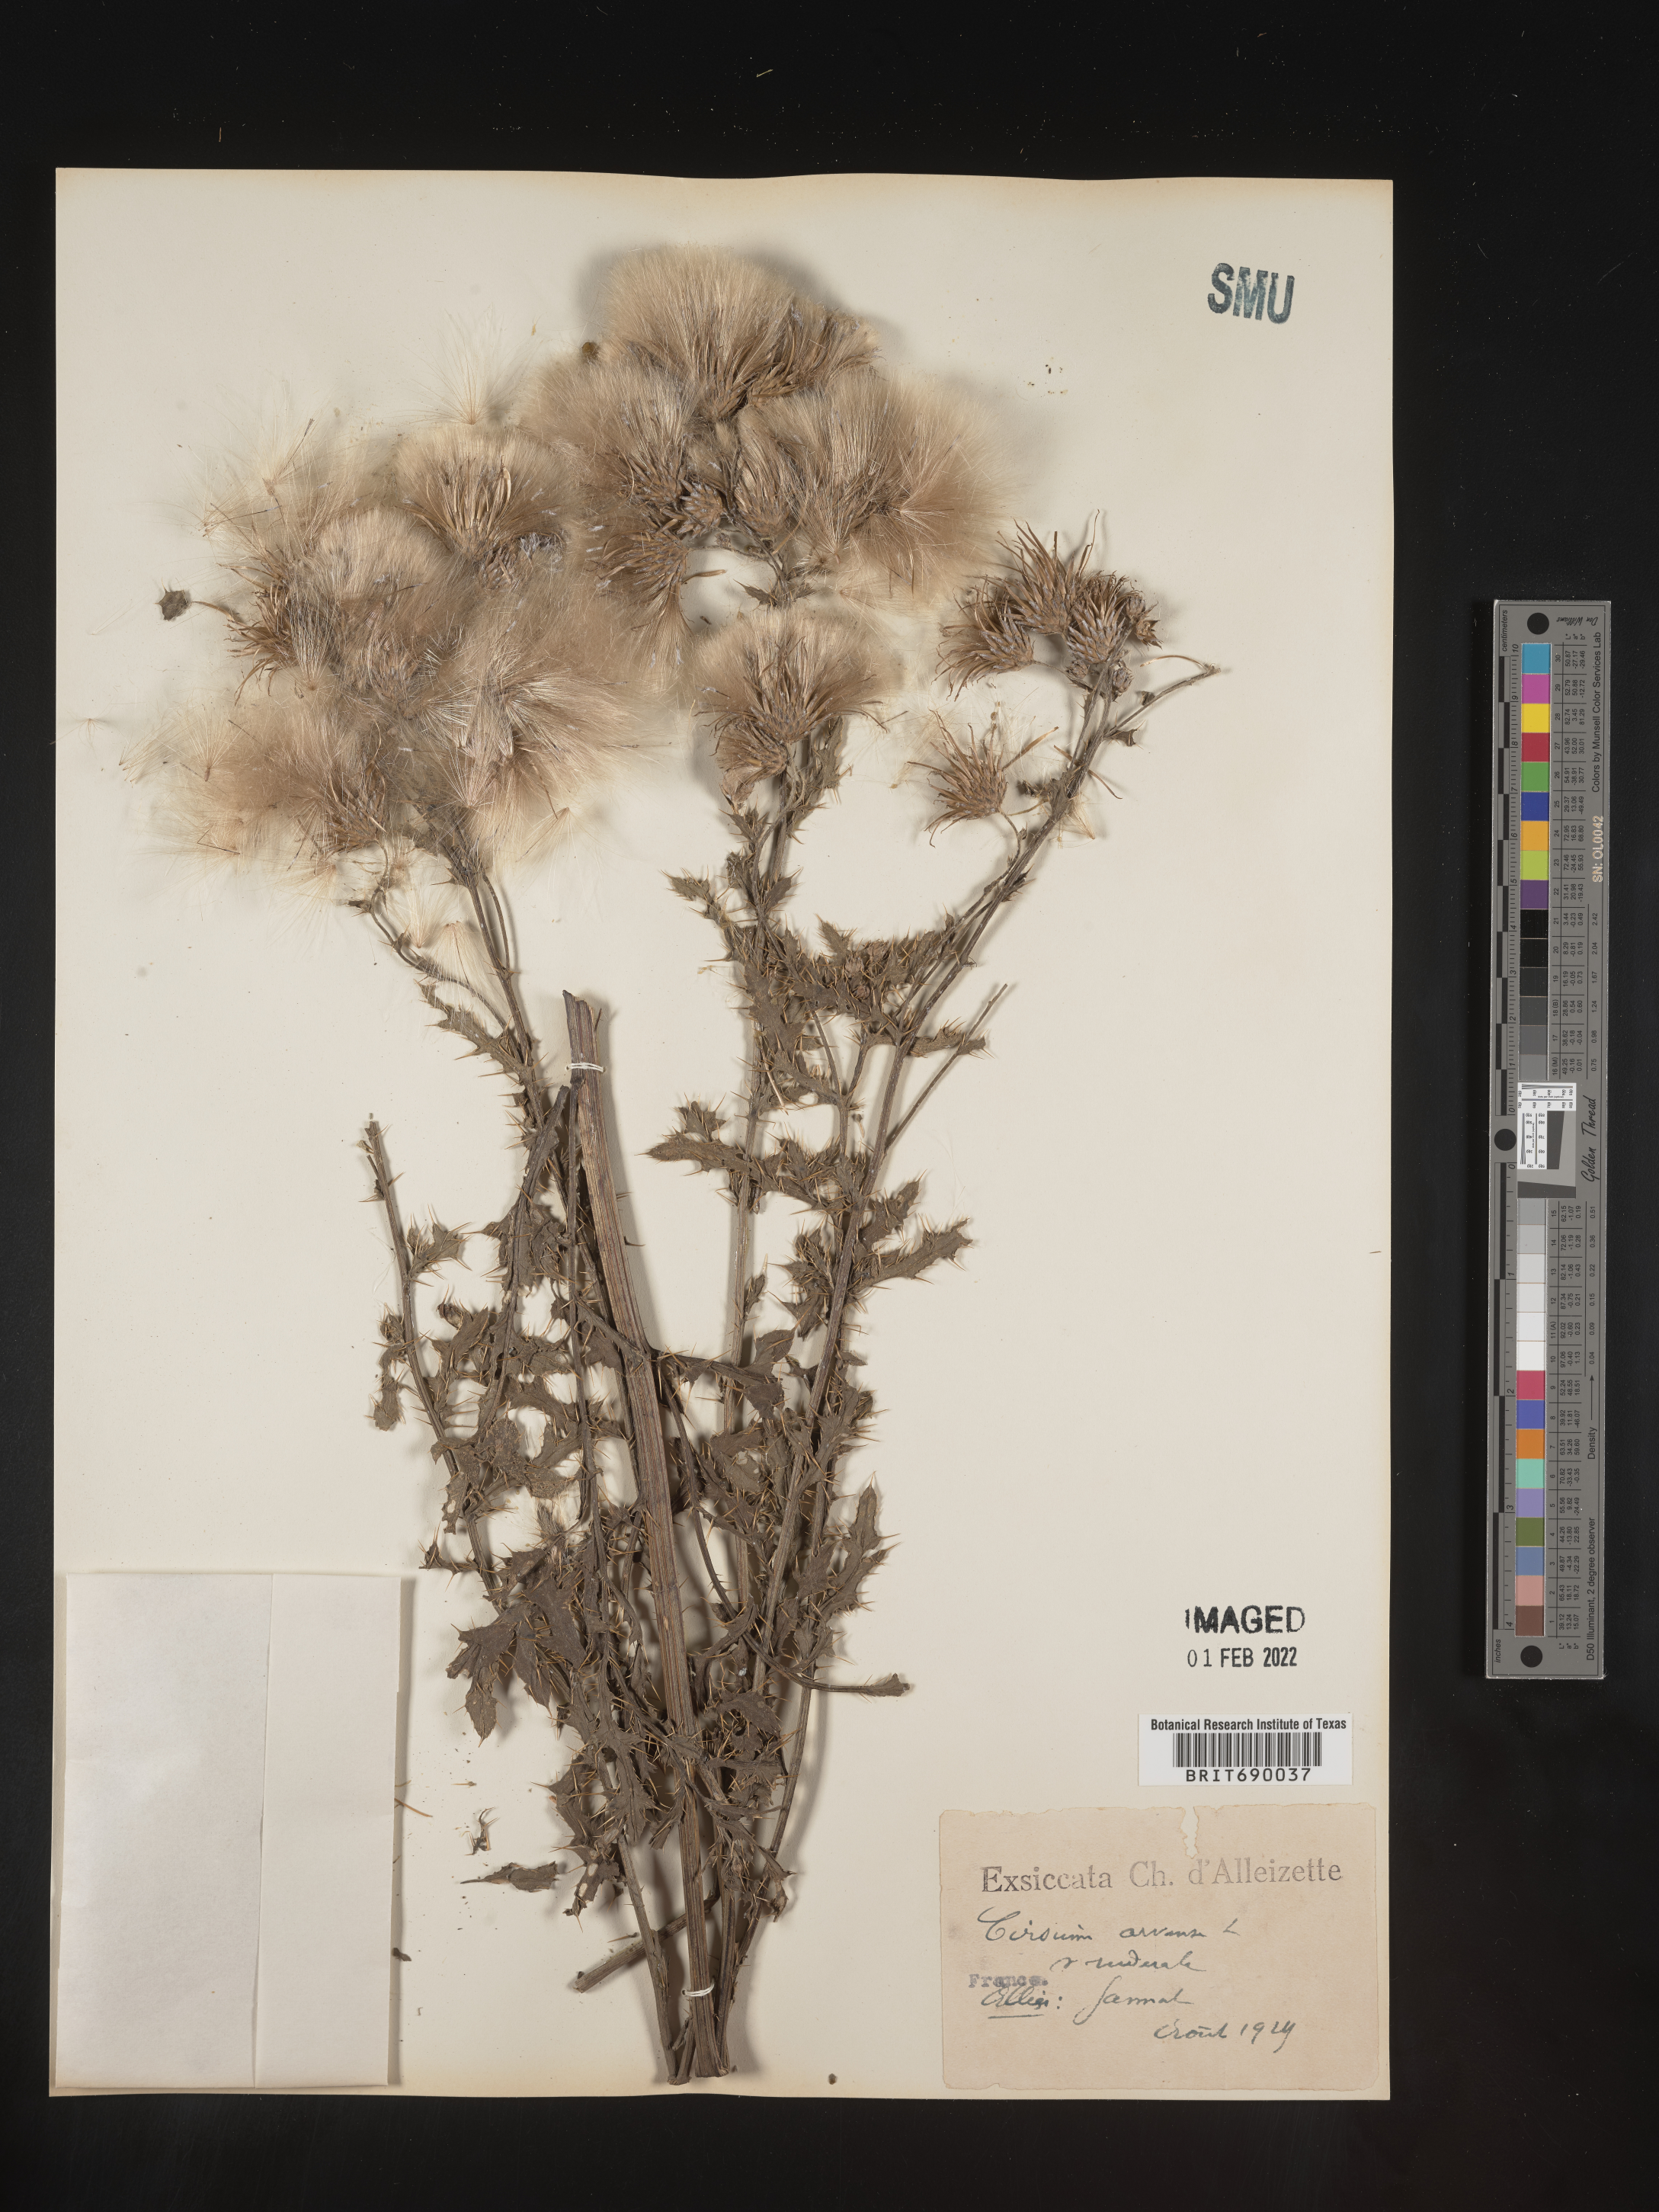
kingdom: Plantae
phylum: Tracheophyta
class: Magnoliopsida
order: Asterales
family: Asteraceae
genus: Cirsium
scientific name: Cirsium
